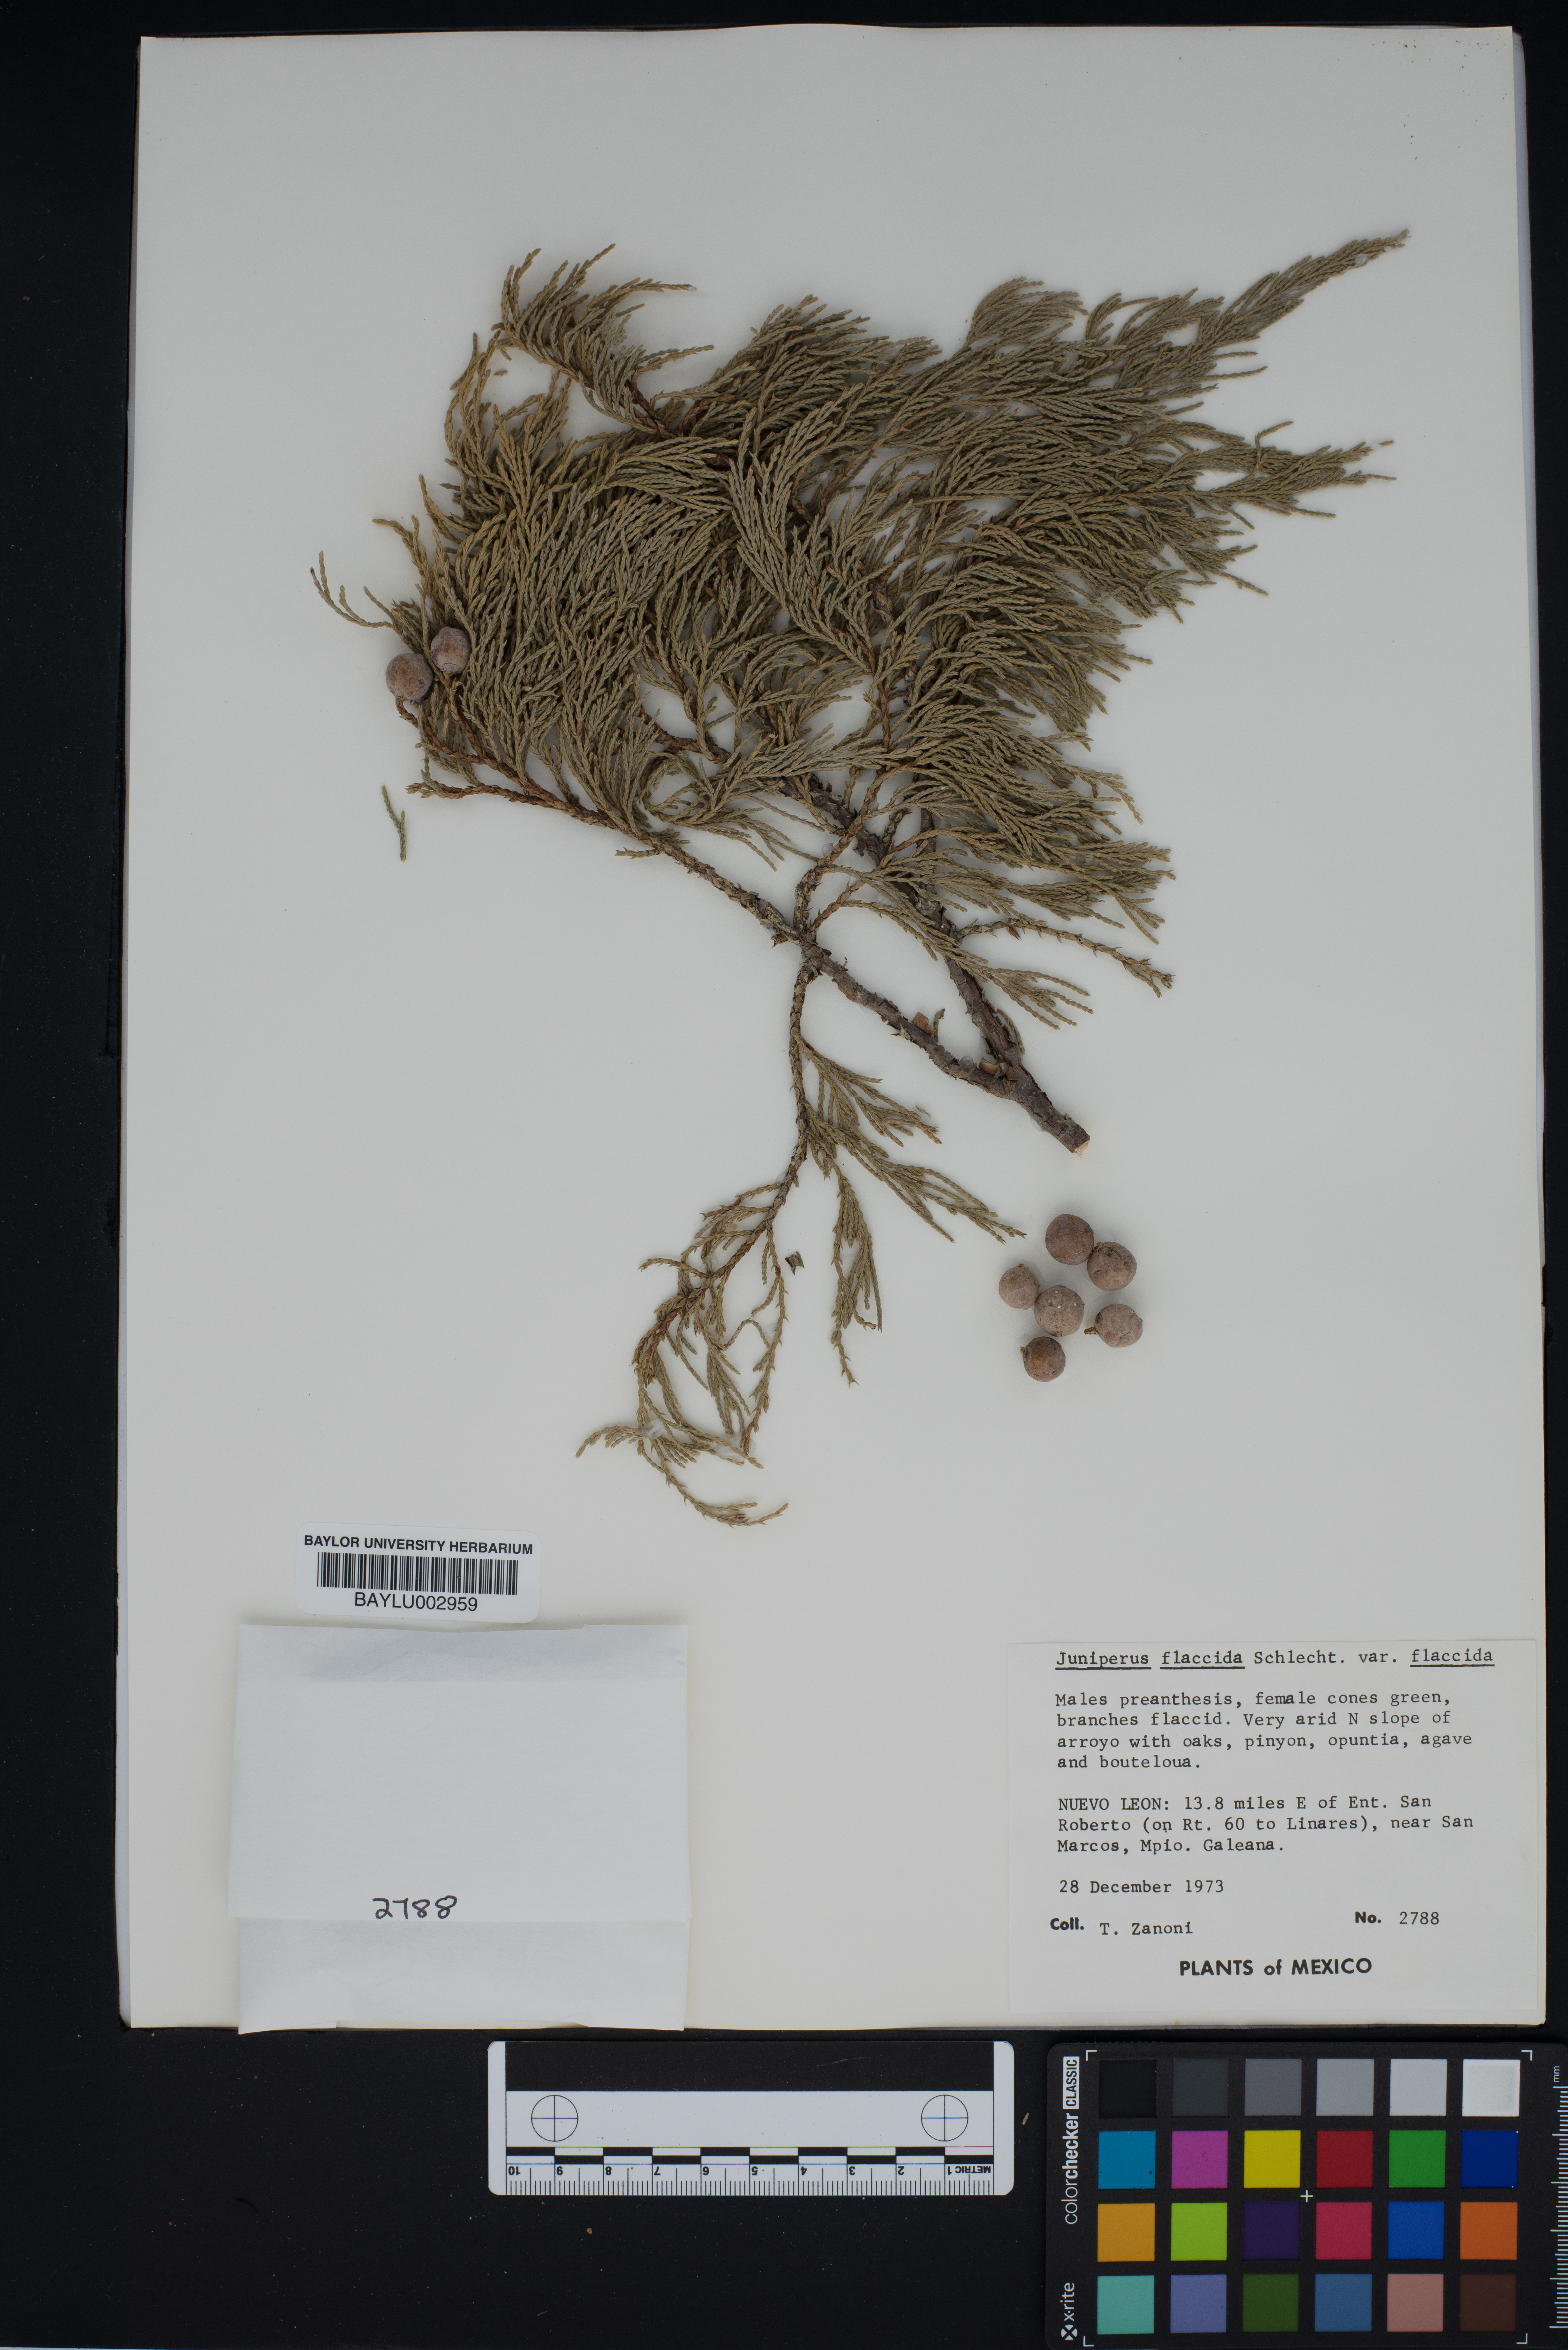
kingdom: Plantae
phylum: Tracheophyta
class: Pinopsida
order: Pinales
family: Cupressaceae
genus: Juniperus
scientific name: Juniperus flaccida
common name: Drooping juniper
